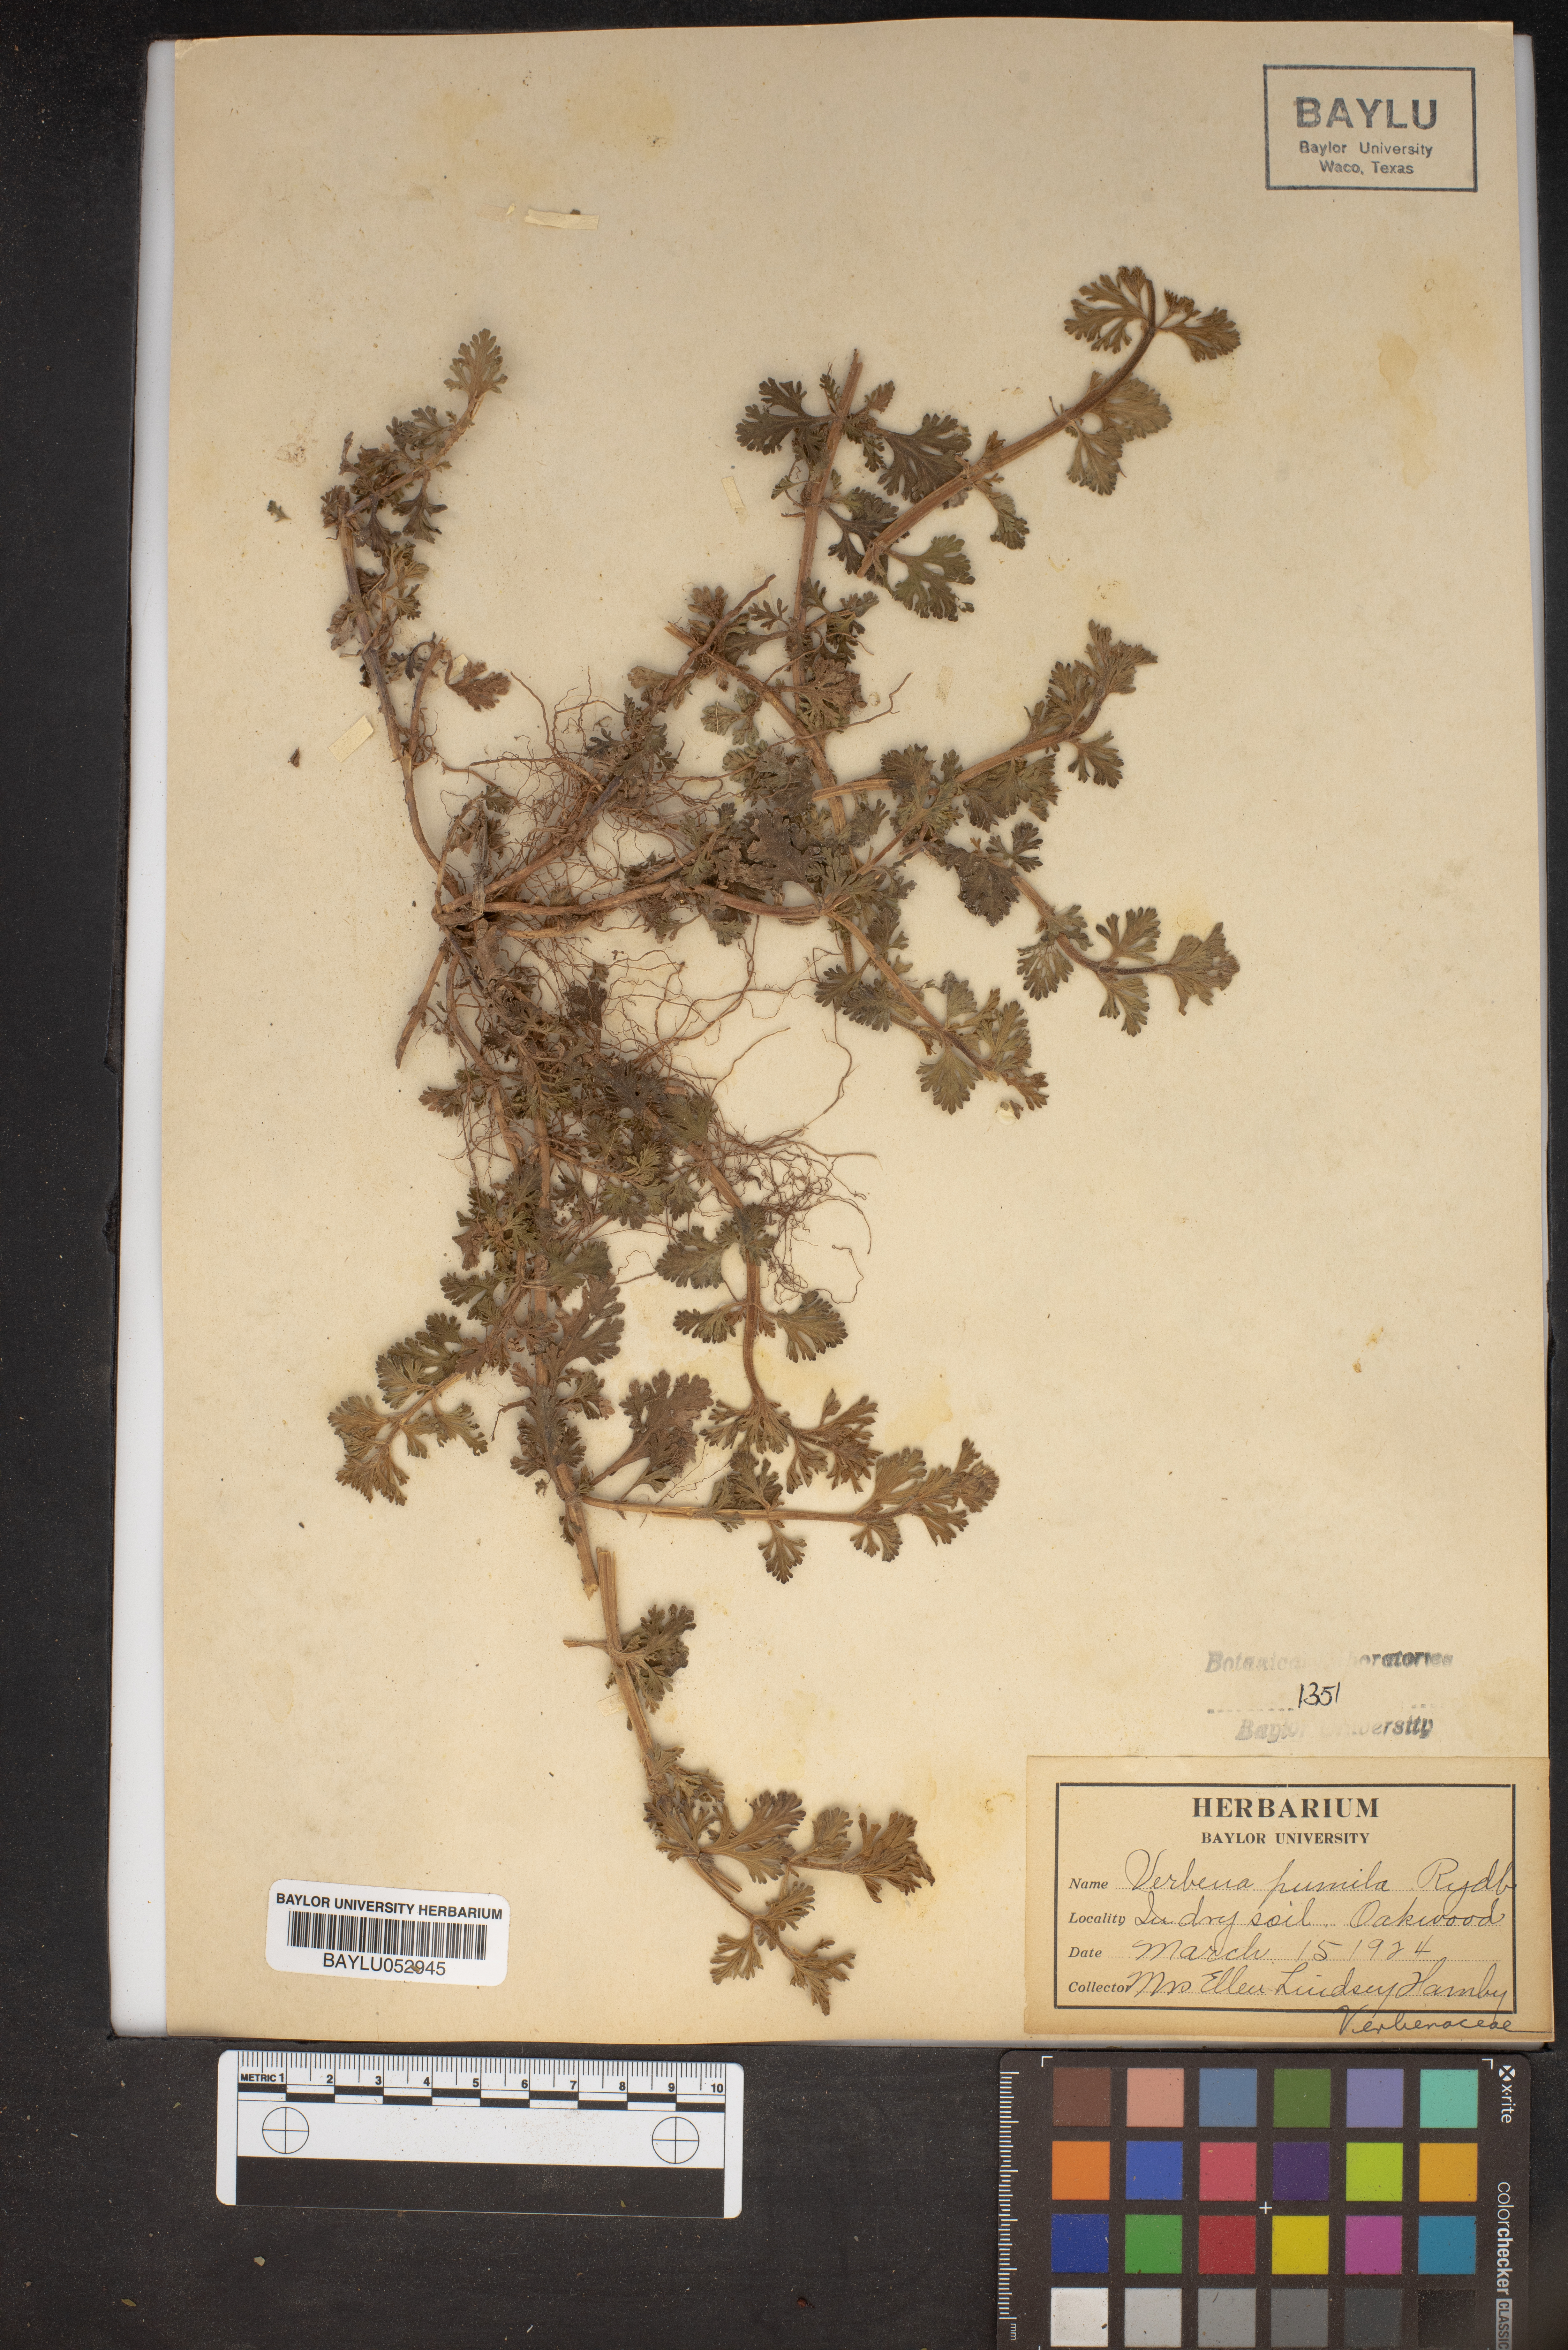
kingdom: Plantae
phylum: Tracheophyta
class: Magnoliopsida
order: Lamiales
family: Verbenaceae
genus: Verbena
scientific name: Verbena pumila
